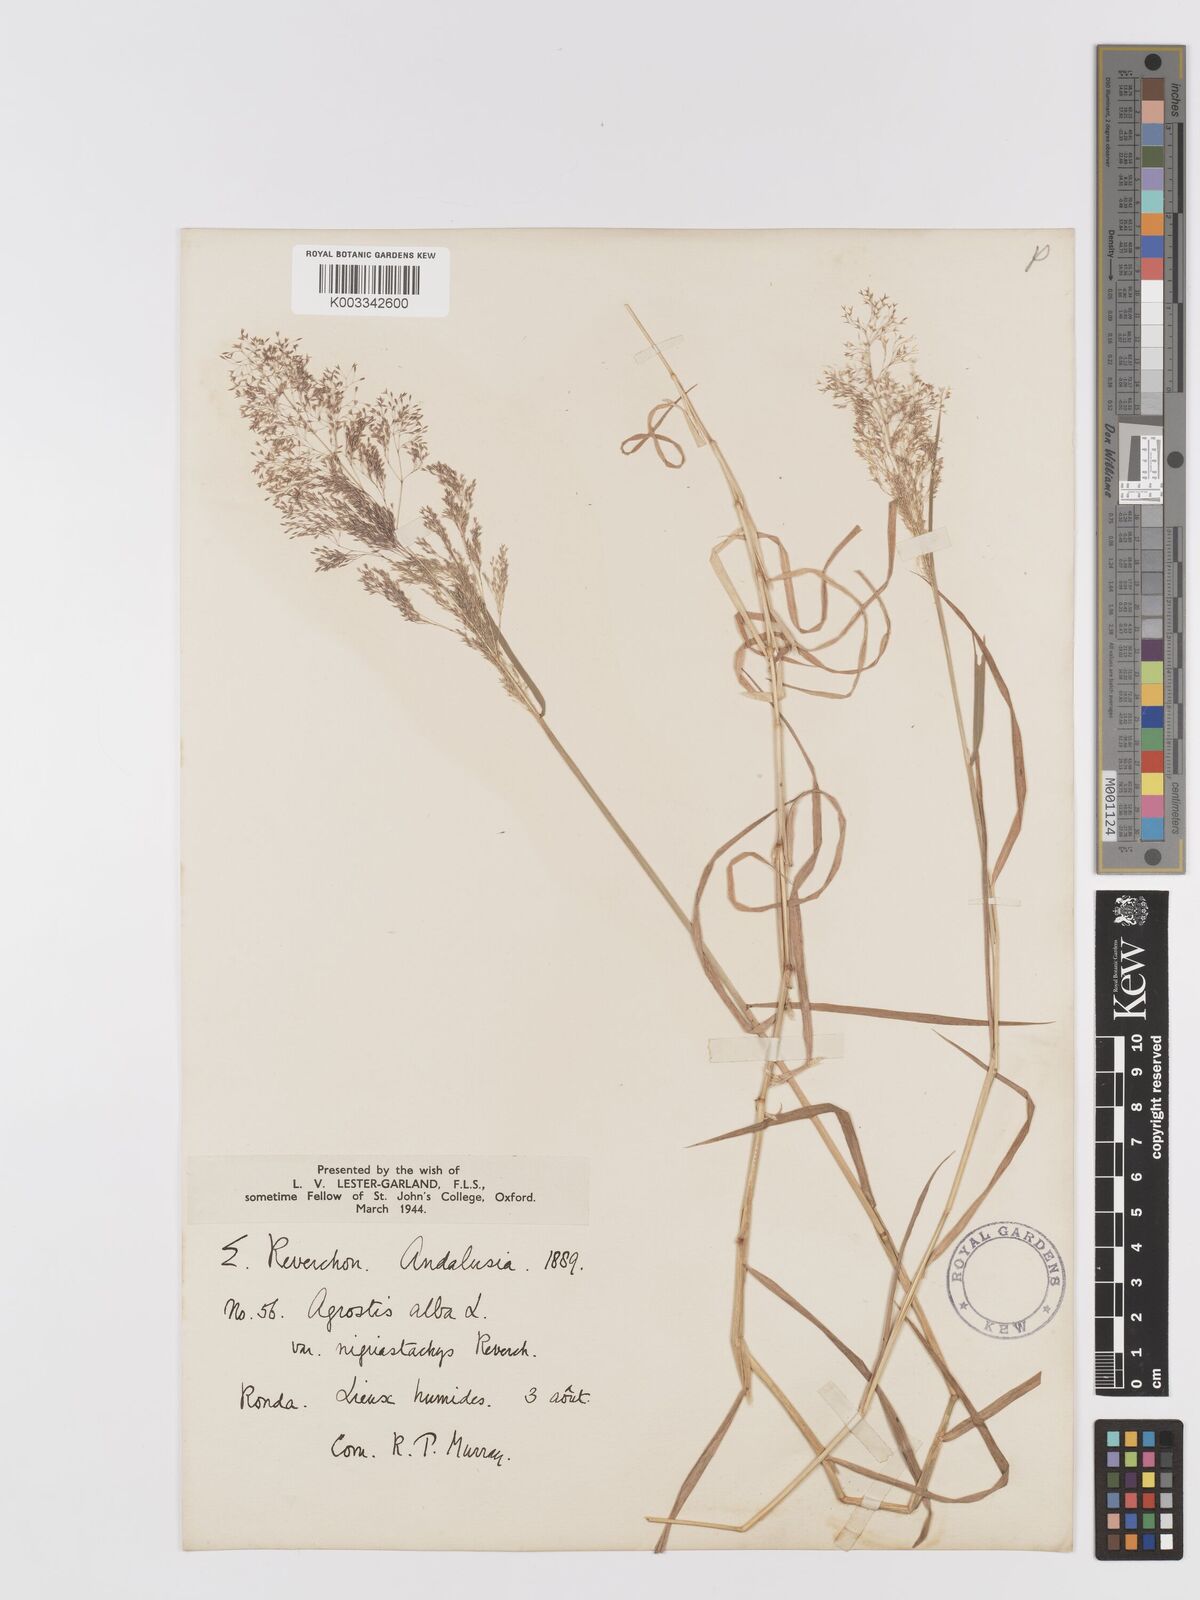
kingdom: Plantae
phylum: Tracheophyta
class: Liliopsida
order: Poales
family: Poaceae
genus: Agrostis
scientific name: Agrostis
